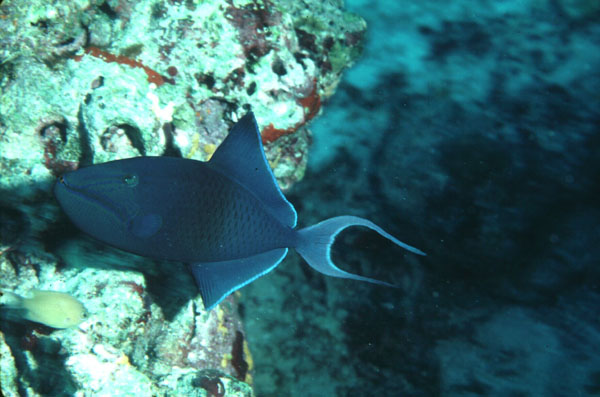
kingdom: Animalia
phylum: Chordata
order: Tetraodontiformes
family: Balistidae
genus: Odonus
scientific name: Odonus niger
